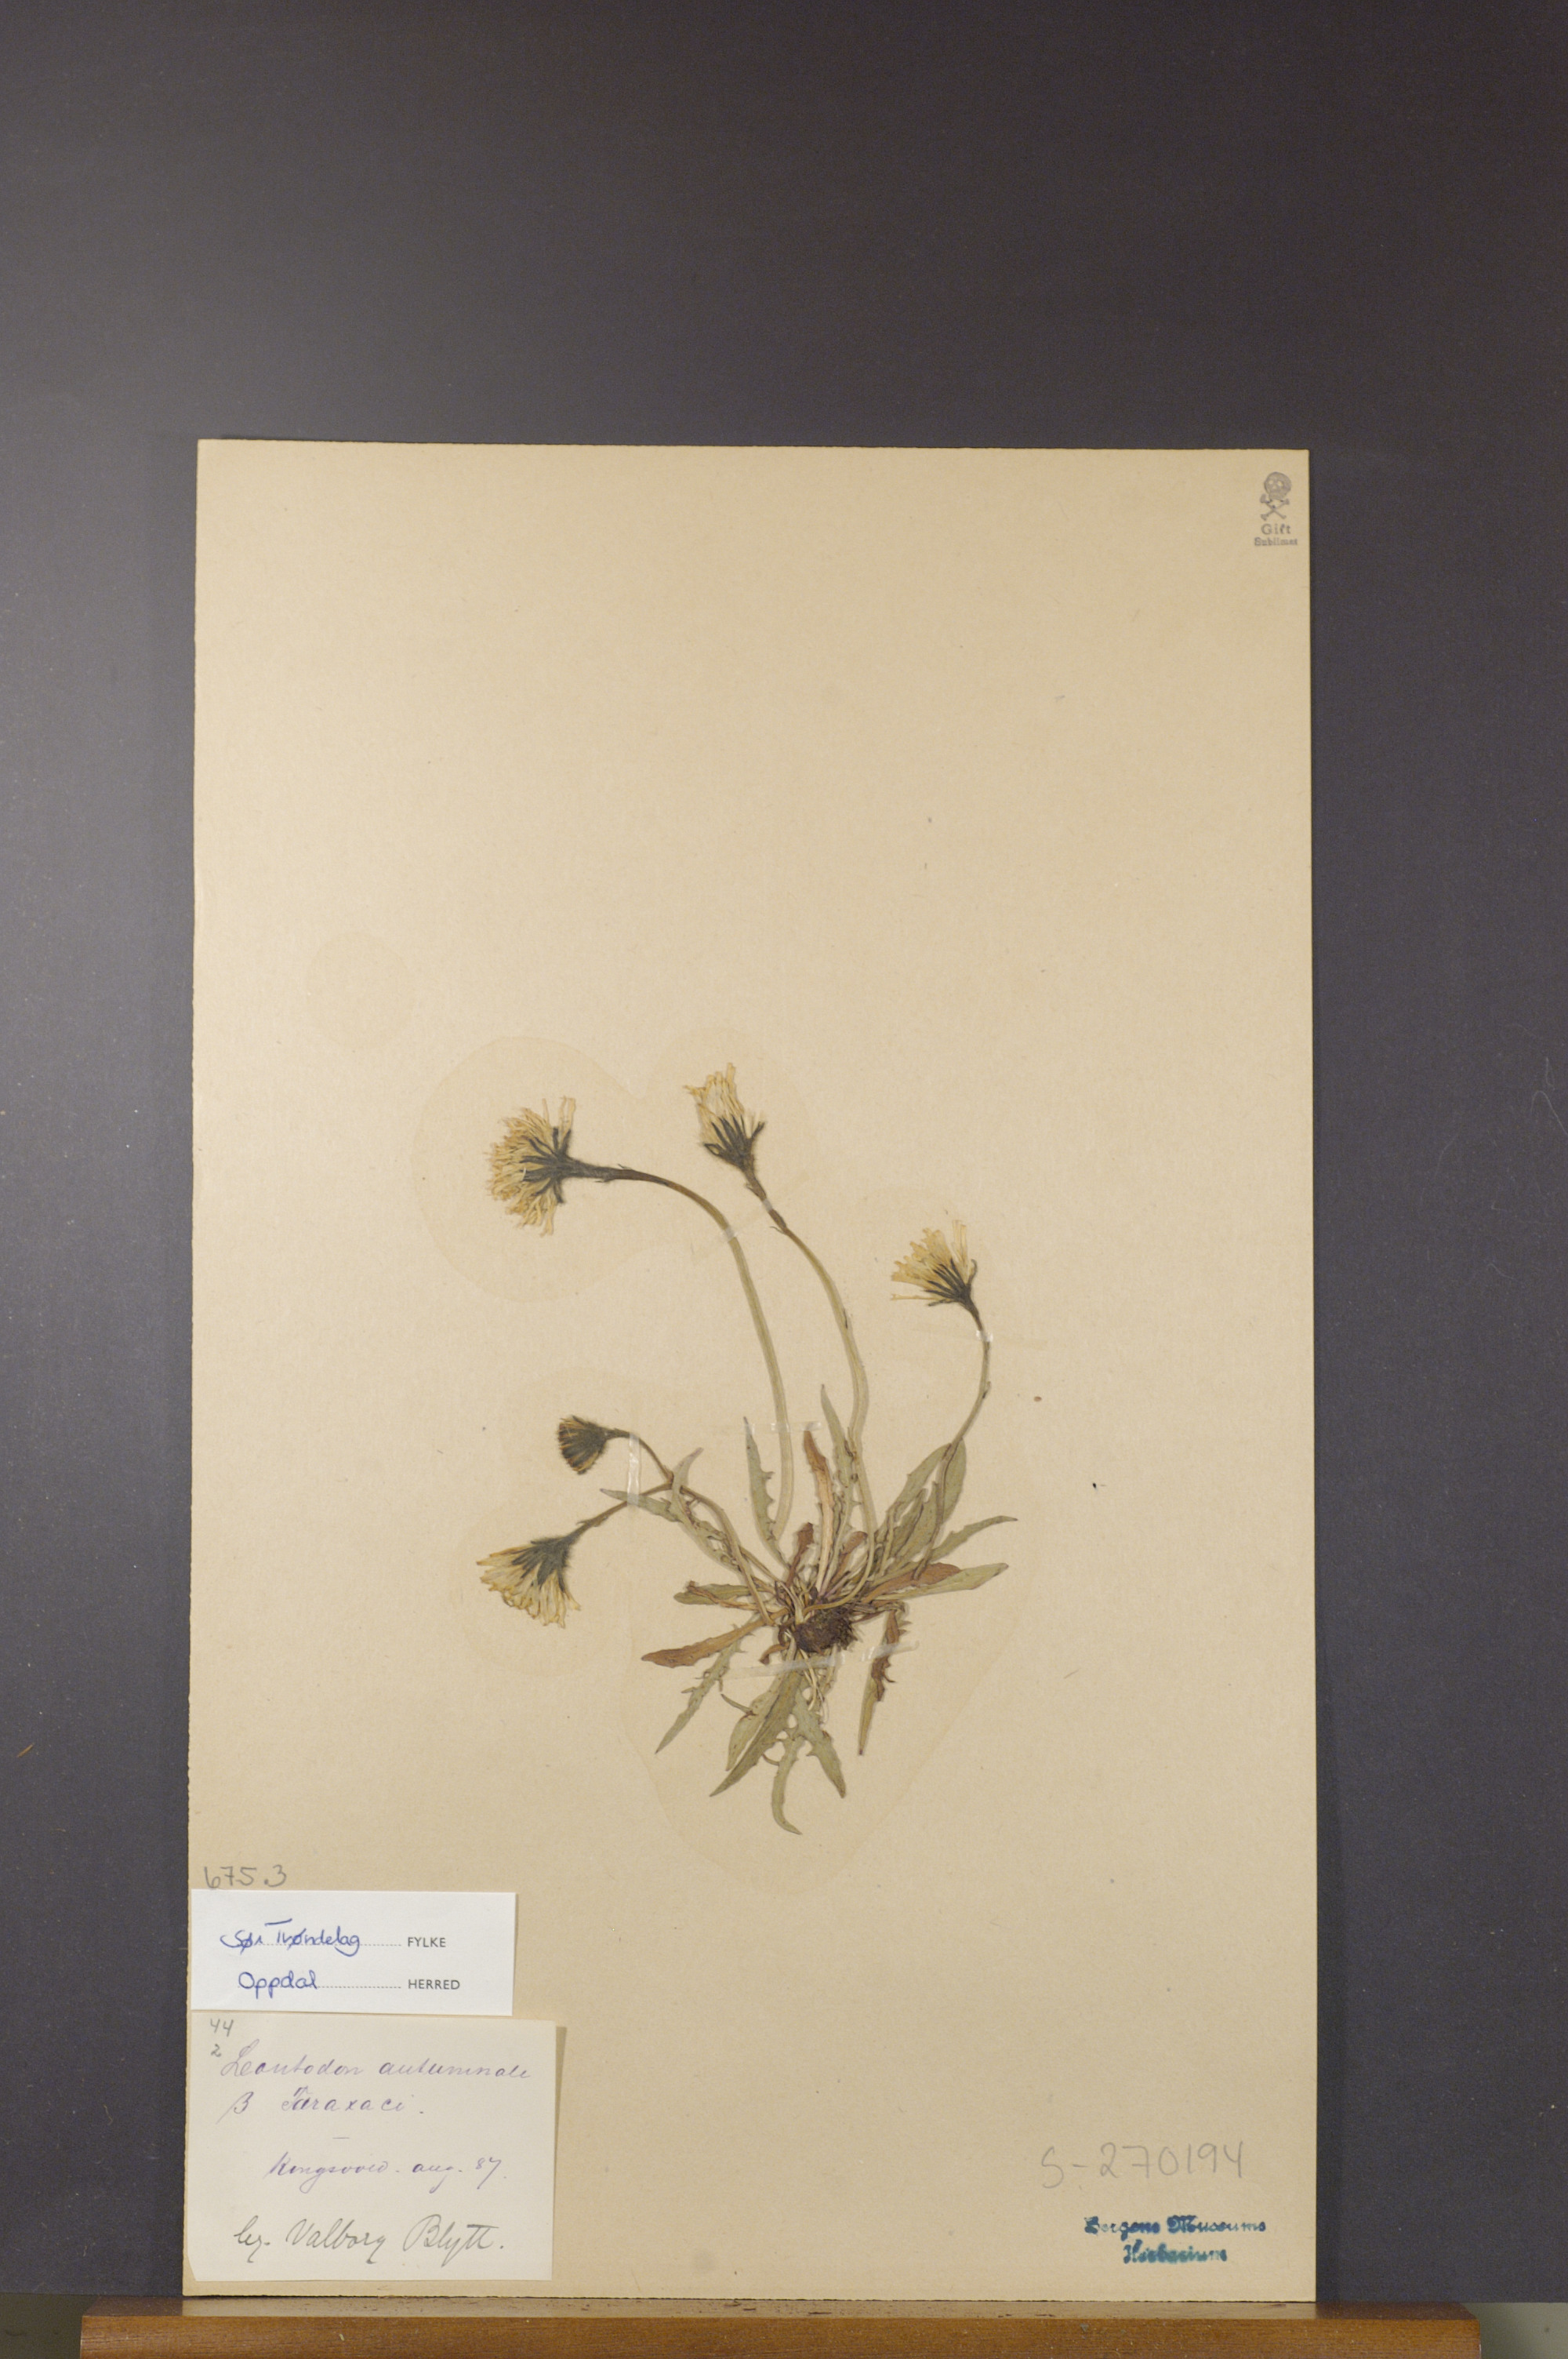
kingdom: Plantae
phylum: Tracheophyta
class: Magnoliopsida
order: Asterales
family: Asteraceae
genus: Scorzoneroides
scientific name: Scorzoneroides autumnalis
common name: Autumn hawkbit
